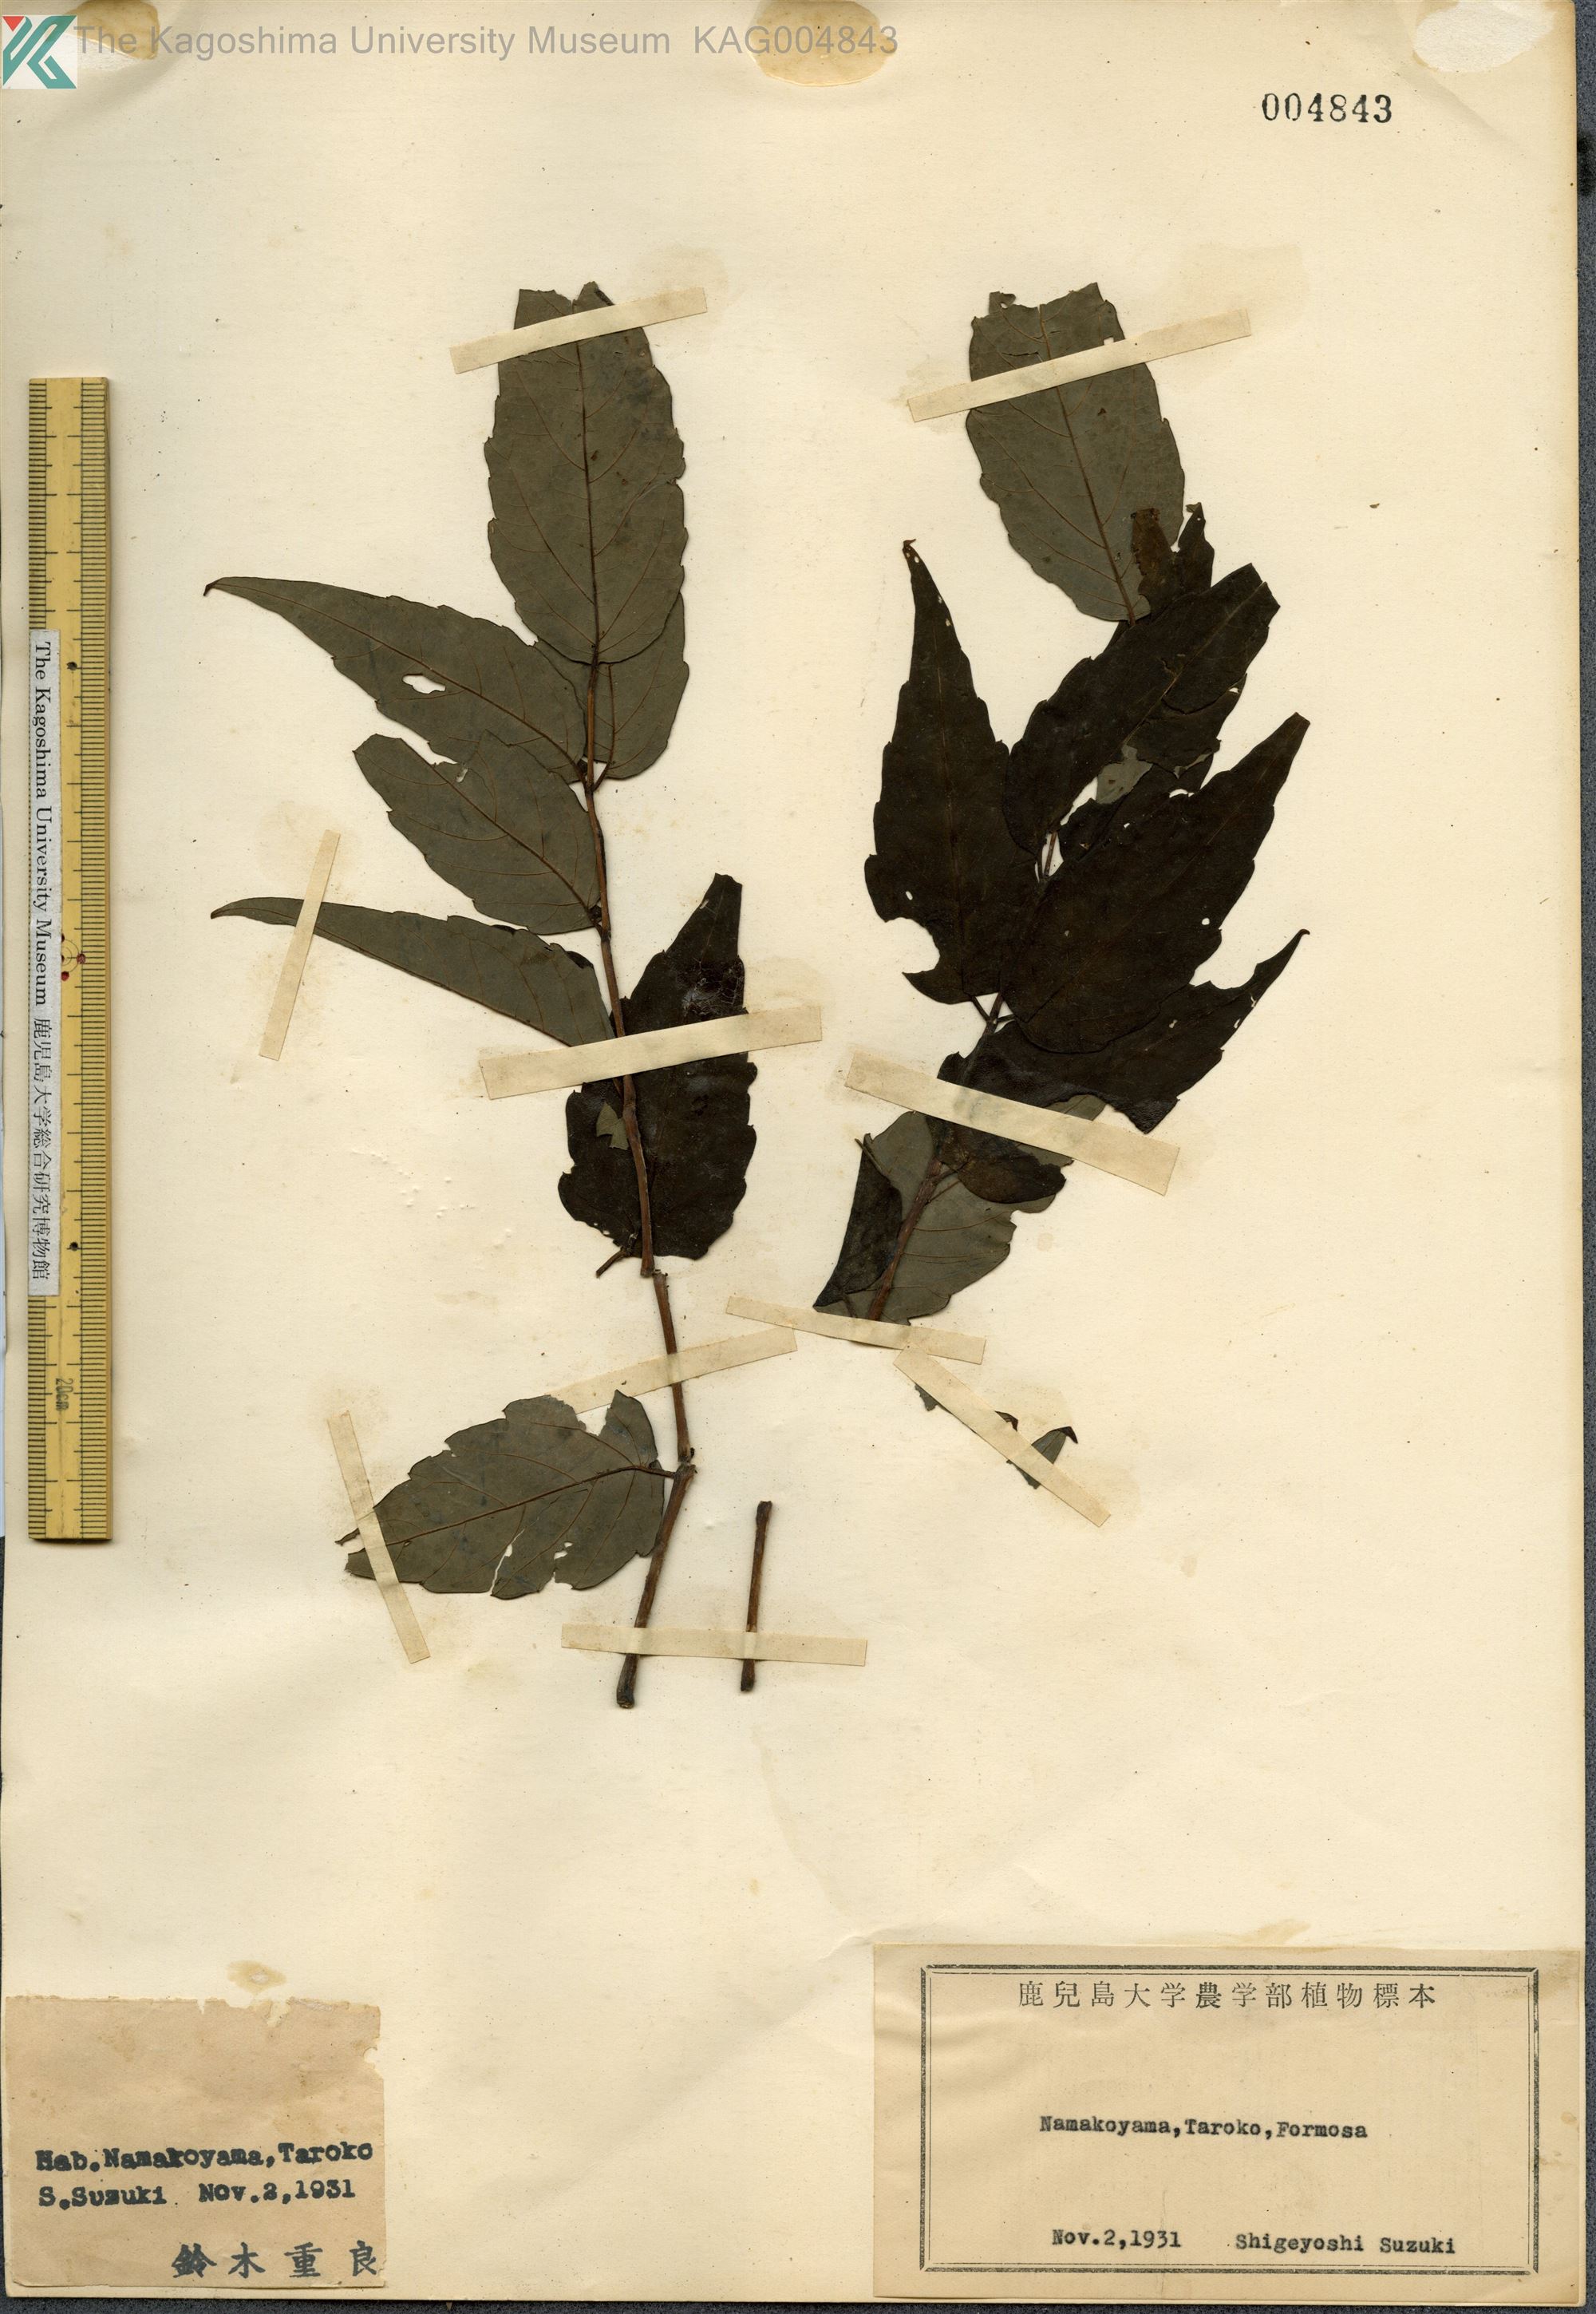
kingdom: Plantae
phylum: Tracheophyta
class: Magnoliopsida
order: Apiales
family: Araliaceae
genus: Aralia
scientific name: Aralia bipinnata
